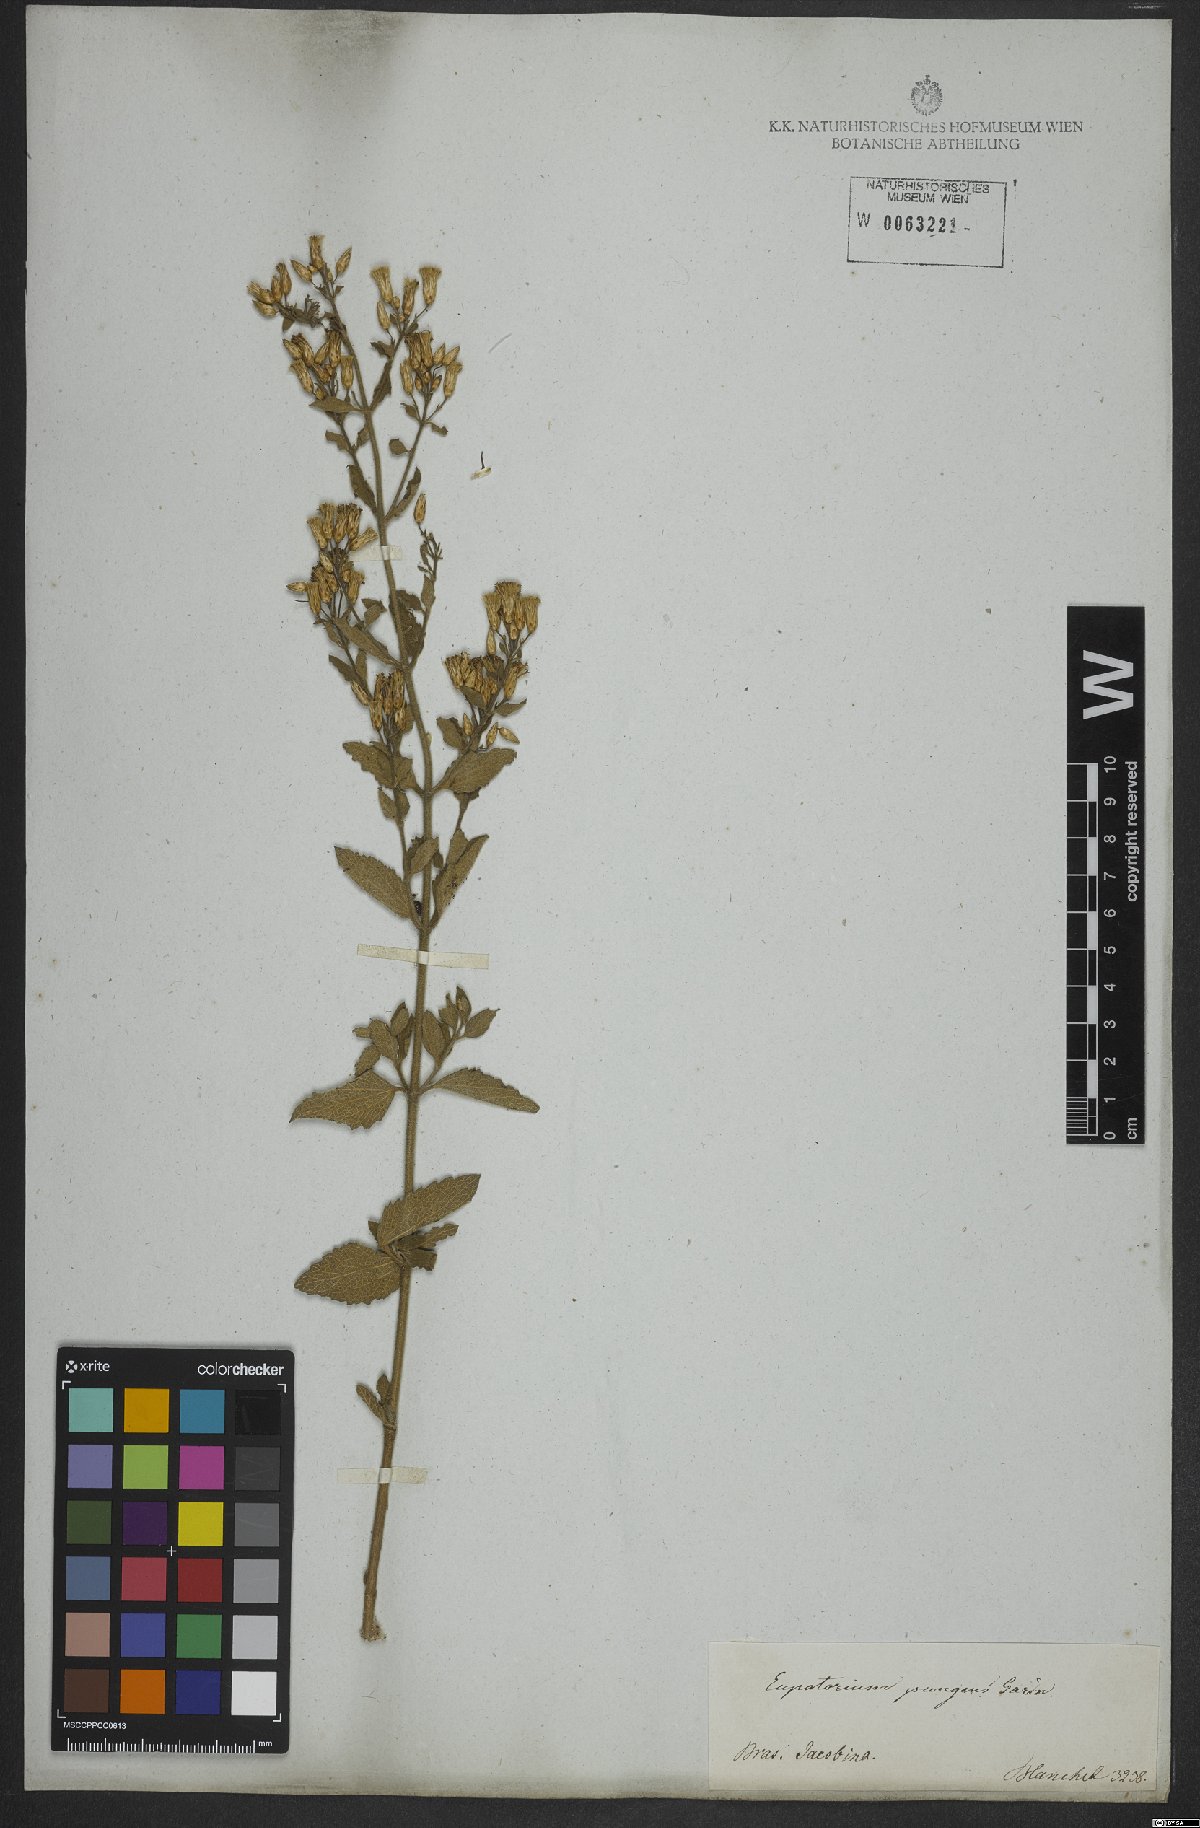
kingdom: Plantae
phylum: Tracheophyta
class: Magnoliopsida
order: Asterales
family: Asteraceae
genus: Chromolaena
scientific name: Chromolaena oxylepis
